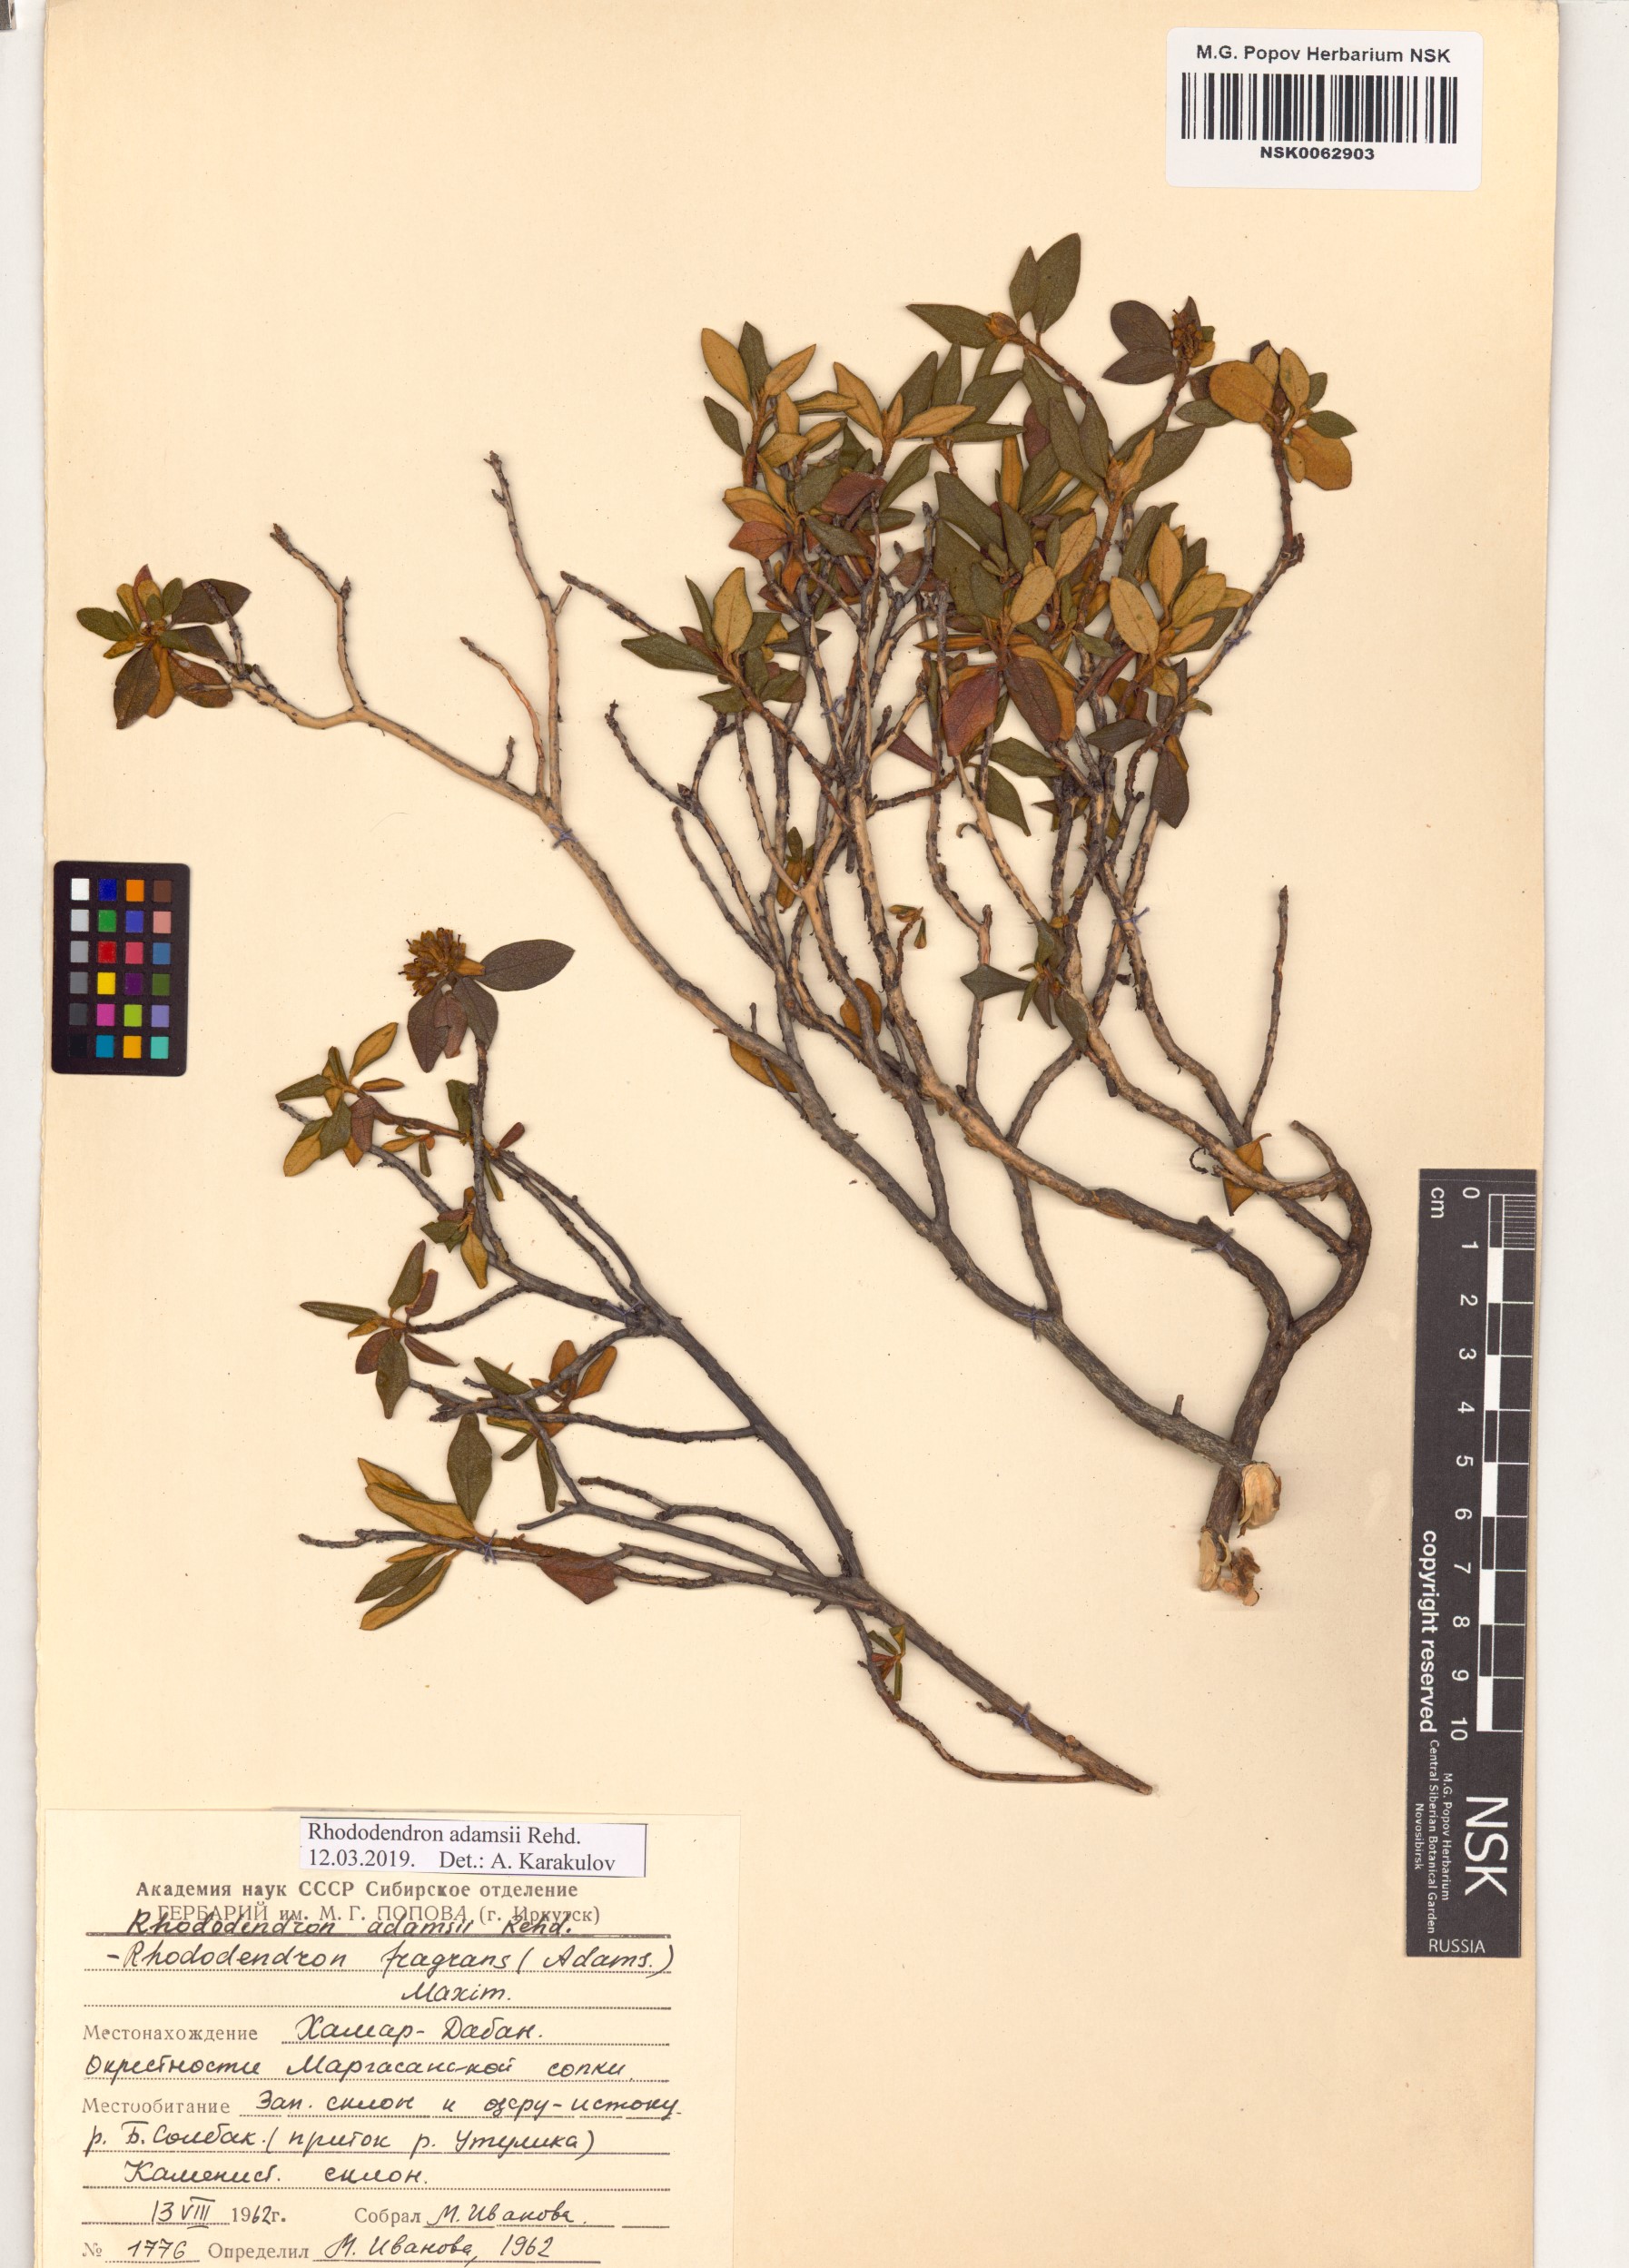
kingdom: Plantae
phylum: Tracheophyta
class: Magnoliopsida
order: Ericales
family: Ericaceae
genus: Rhododendron
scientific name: Rhododendron adamsii
